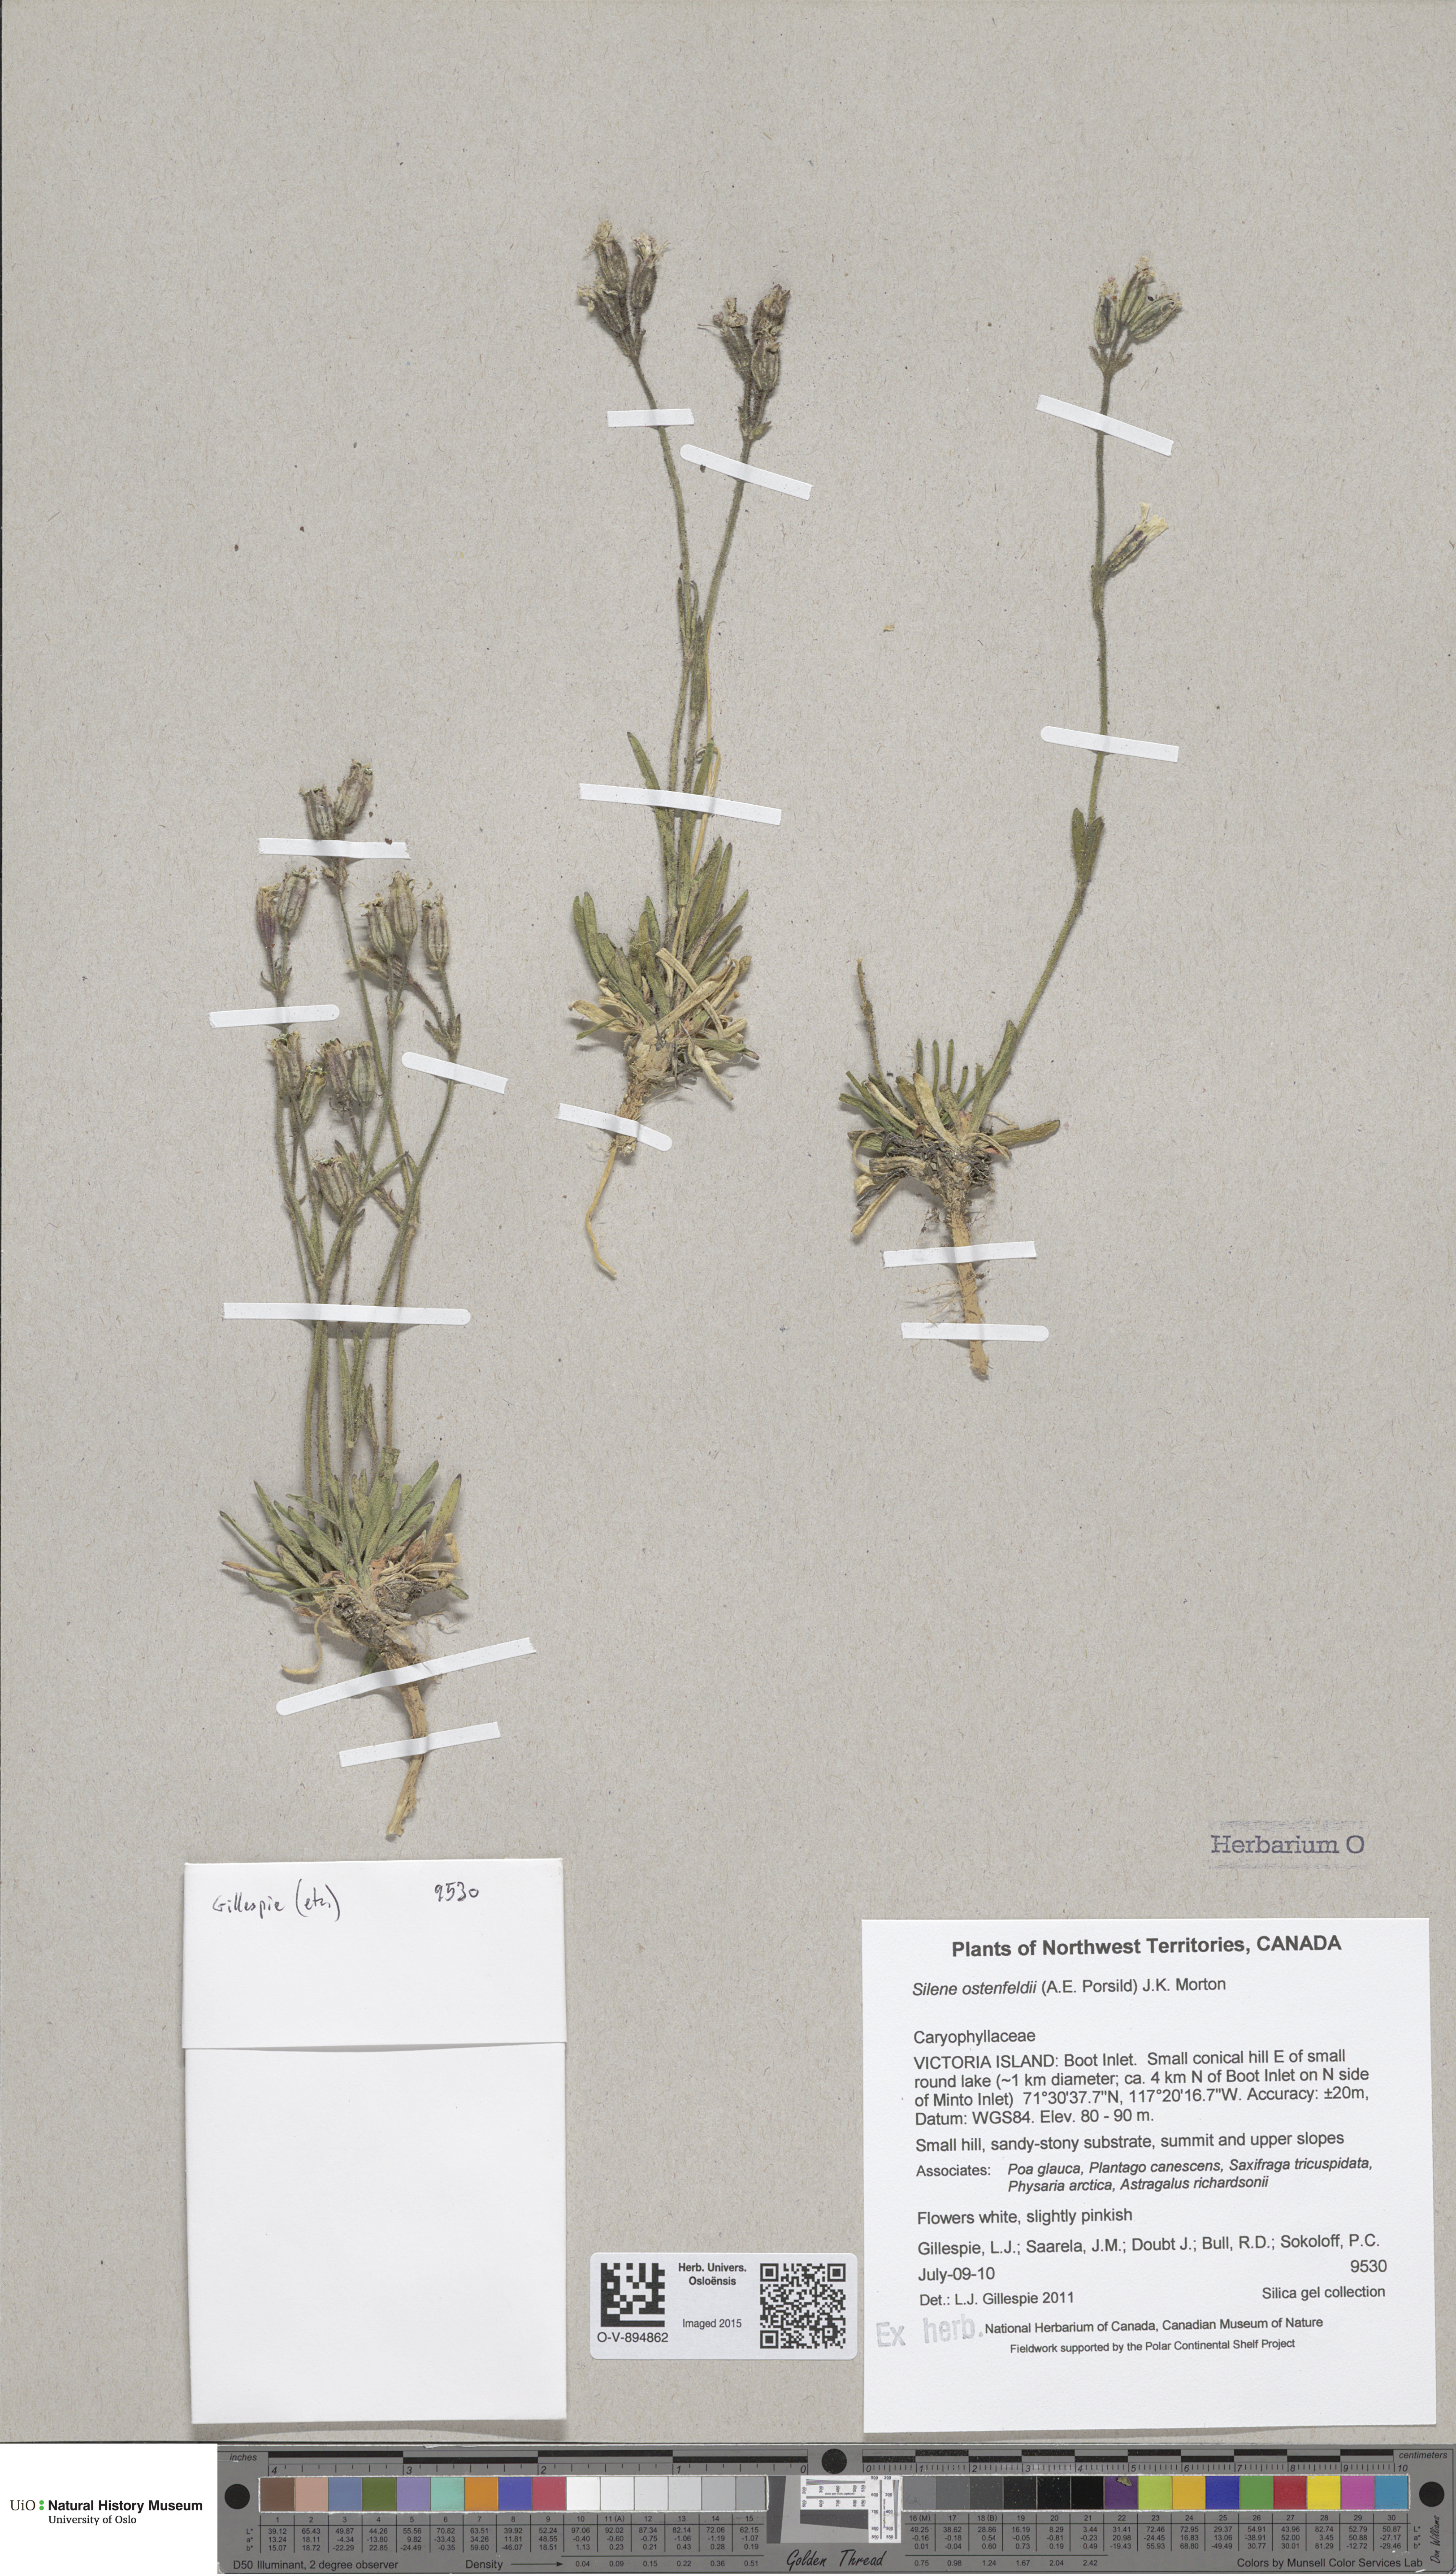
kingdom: Plantae
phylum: Tracheophyta
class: Magnoliopsida
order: Caryophyllales
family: Caryophyllaceae
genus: Silene
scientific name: Silene taimyrensis
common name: Taimyr campion
